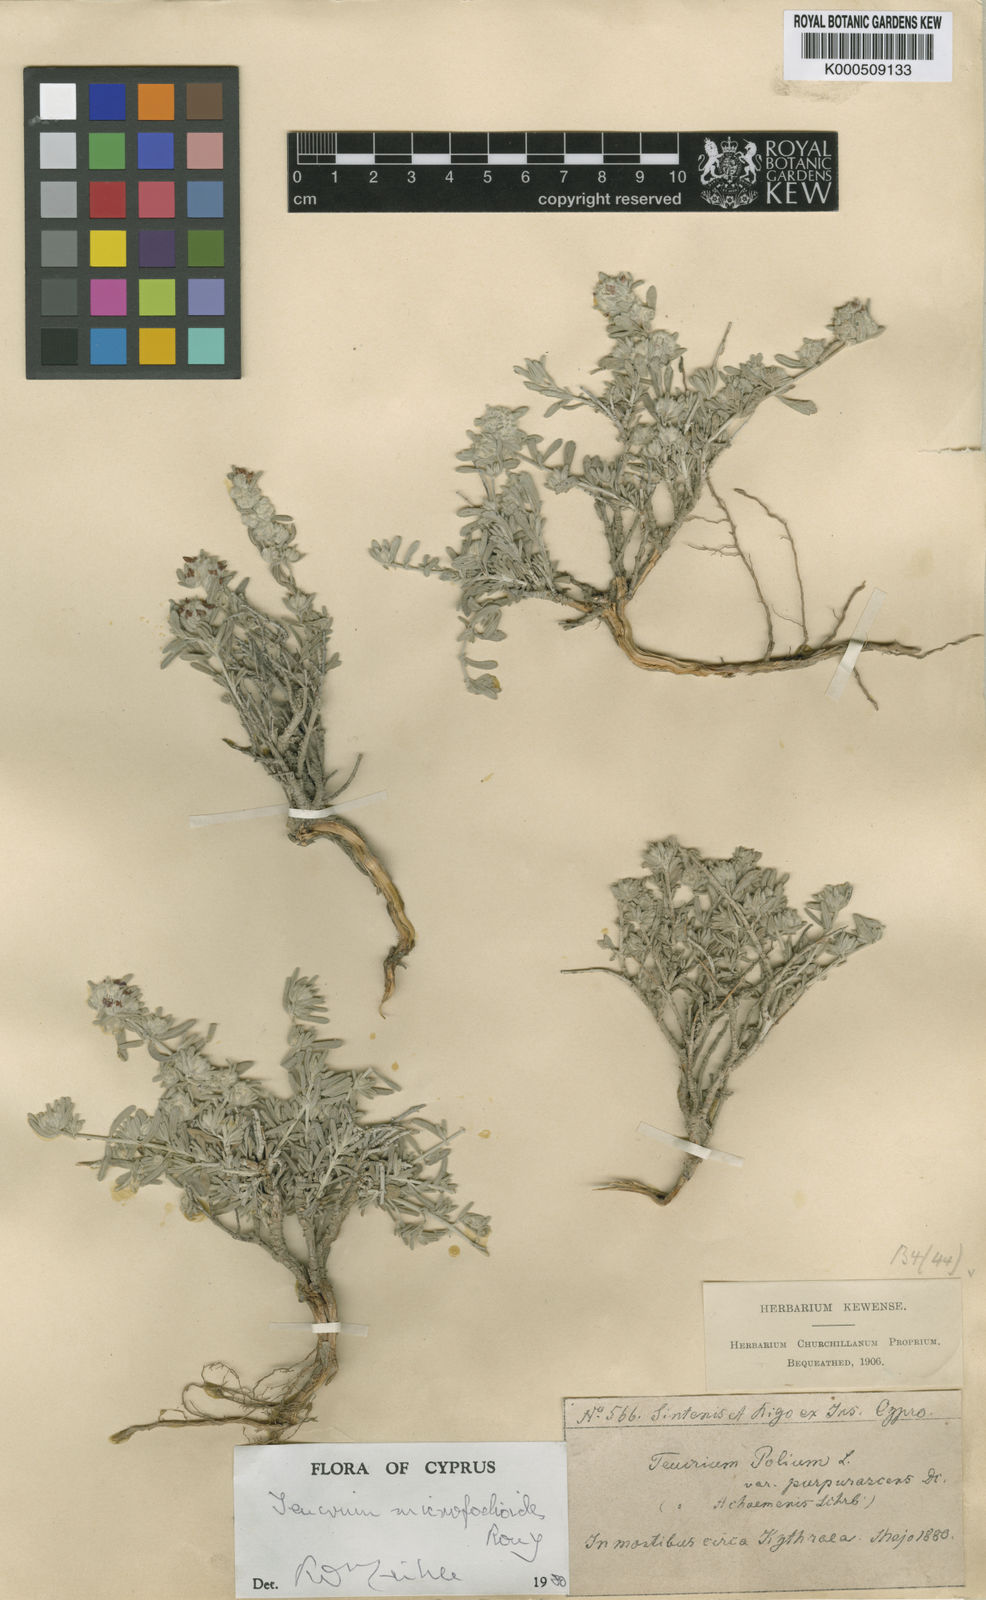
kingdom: Plantae
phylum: Tracheophyta
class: Magnoliopsida
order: Lamiales
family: Lamiaceae
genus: Teucrium
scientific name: Teucrium micropodioides
